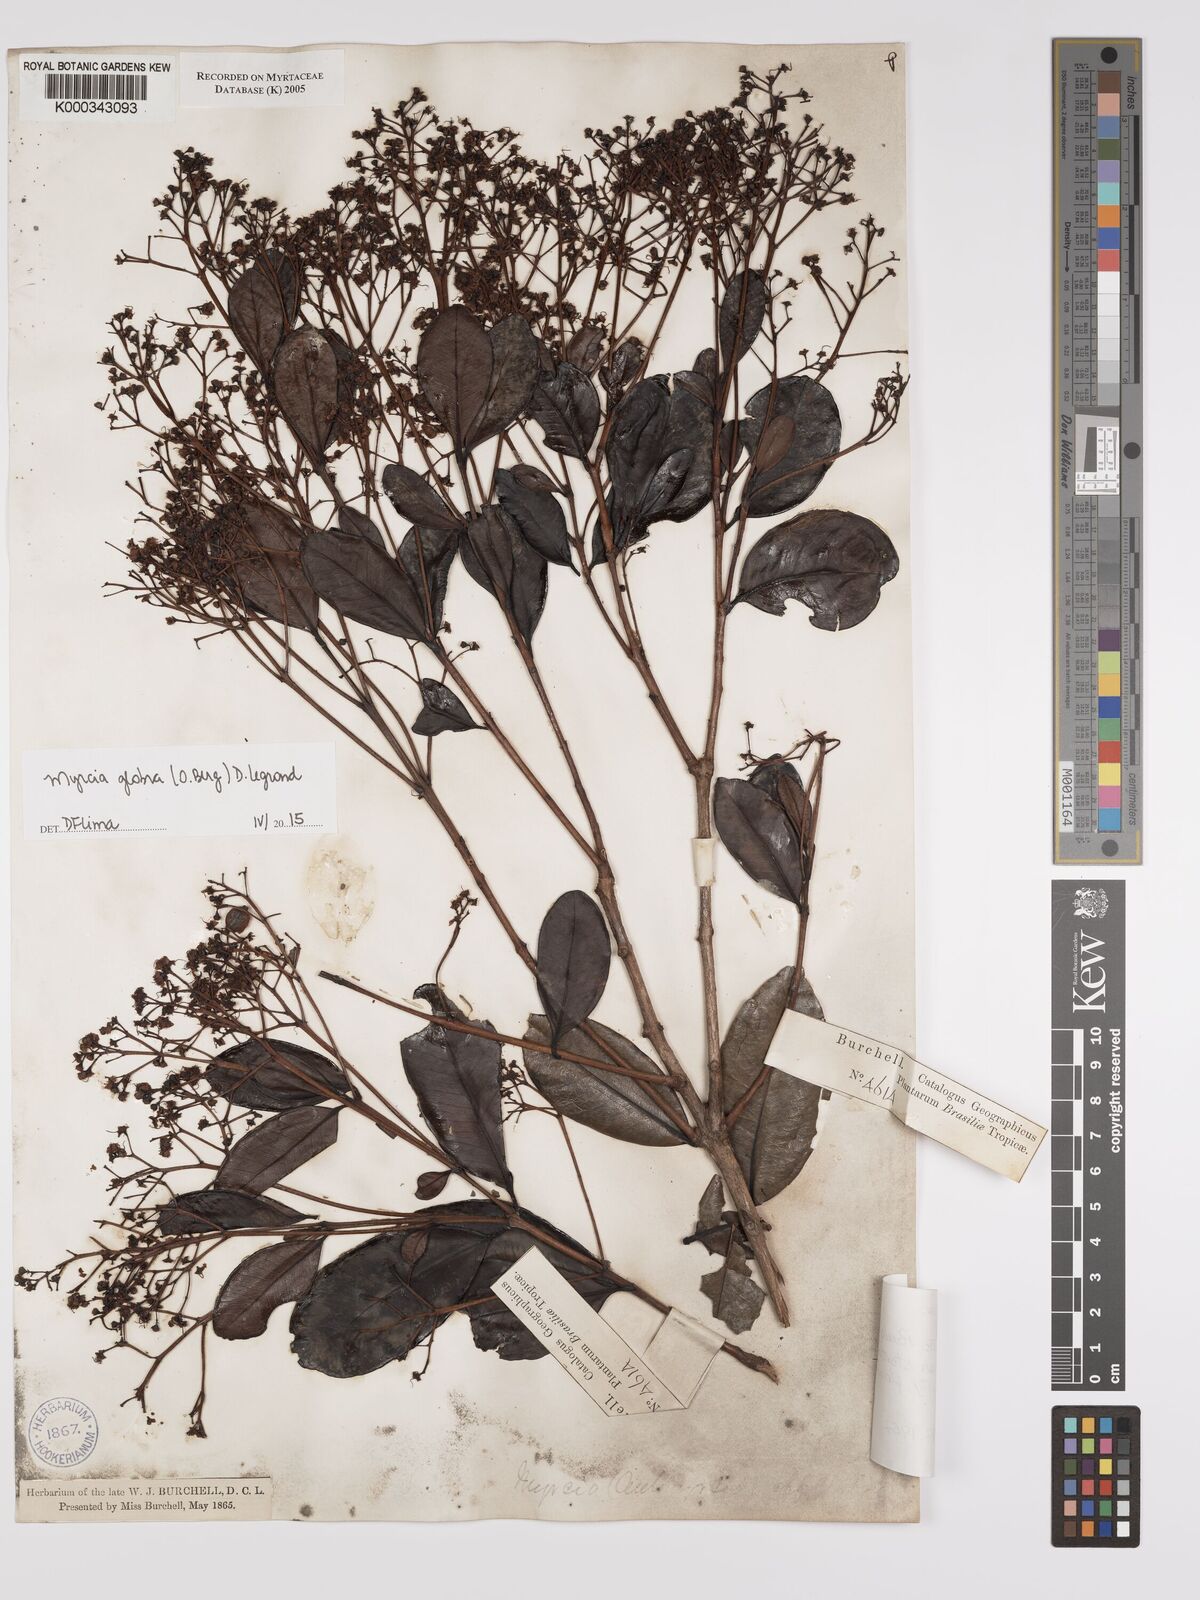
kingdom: Plantae
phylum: Tracheophyta
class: Magnoliopsida
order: Myrtales
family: Myrtaceae
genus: Myrcia
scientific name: Myrcia glabra
